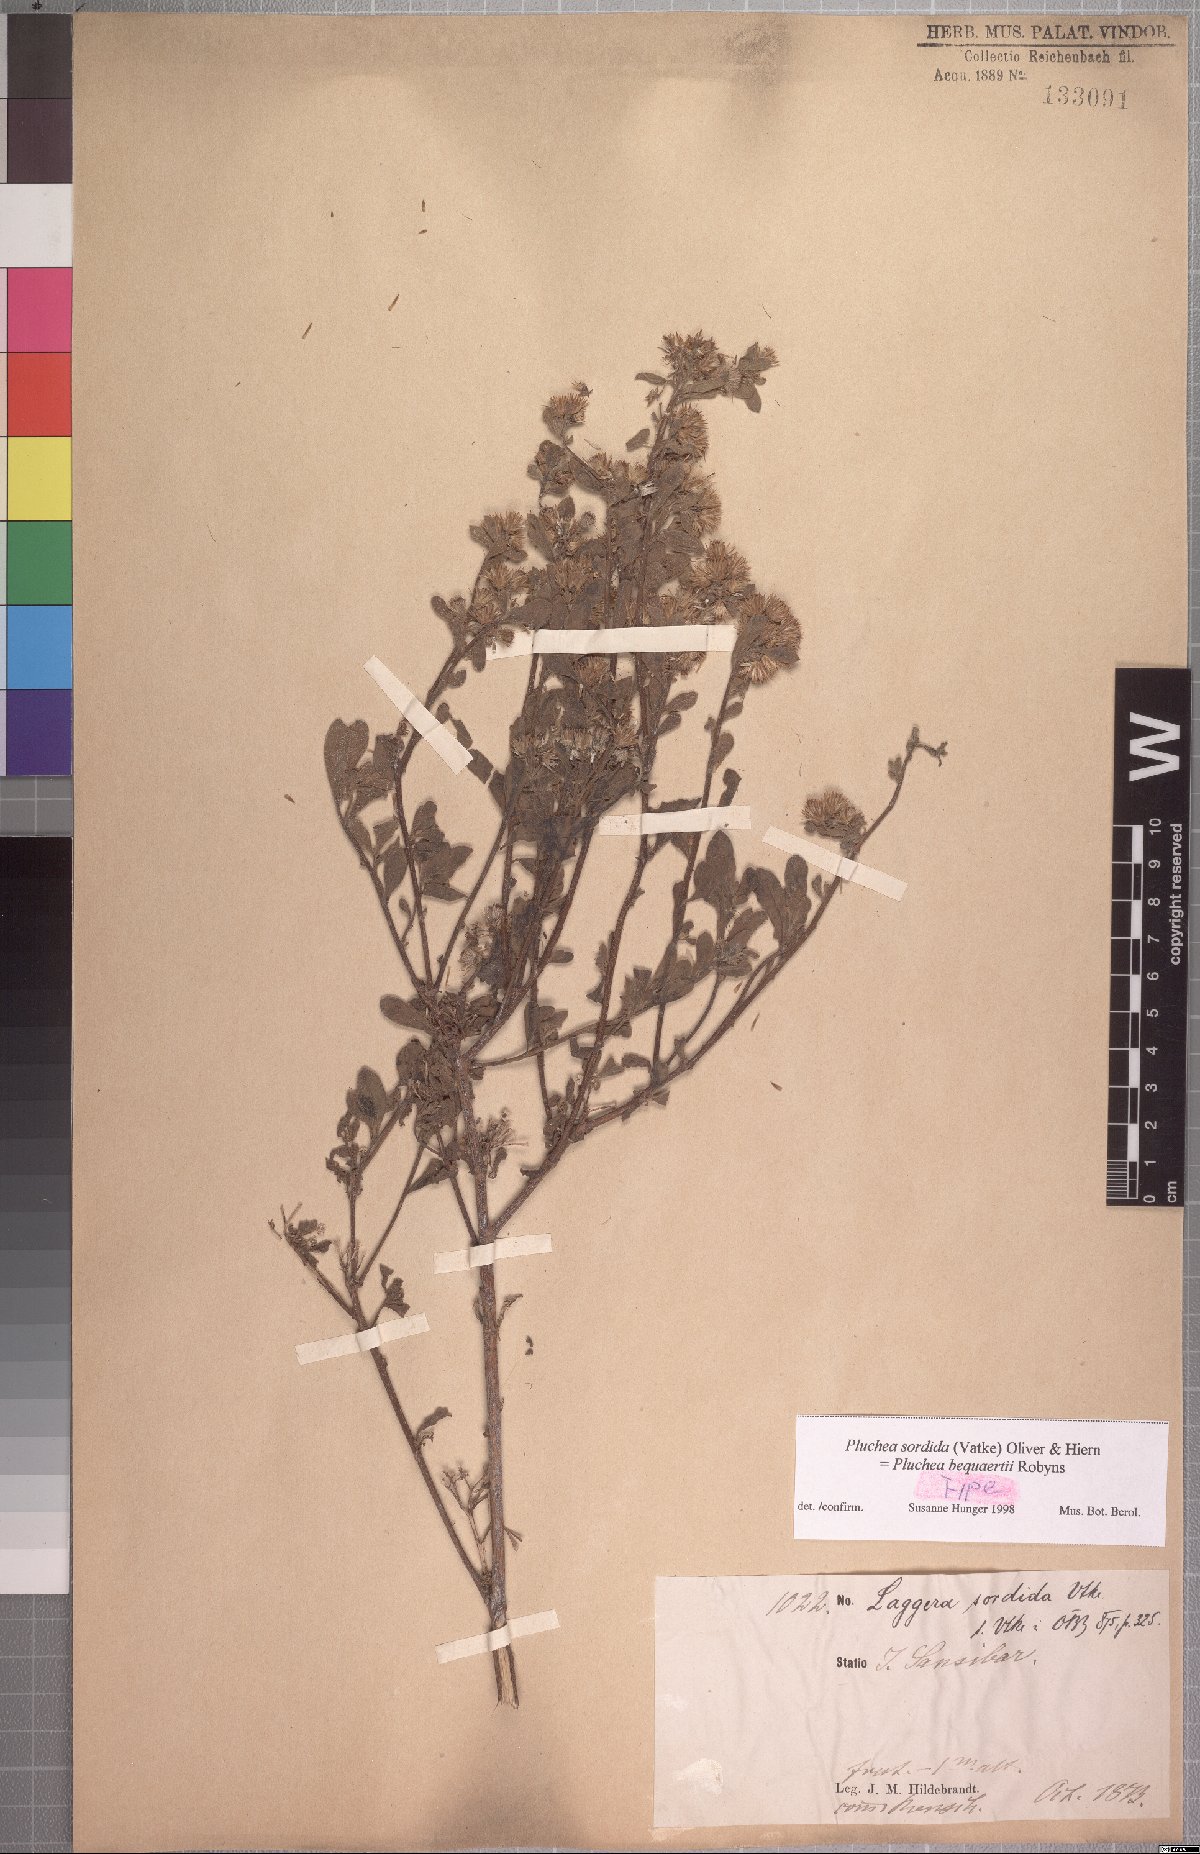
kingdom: Plantae
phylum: Tracheophyta
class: Magnoliopsida
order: Asterales
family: Asteraceae
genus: Pluchea
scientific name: Pluchea sordida
